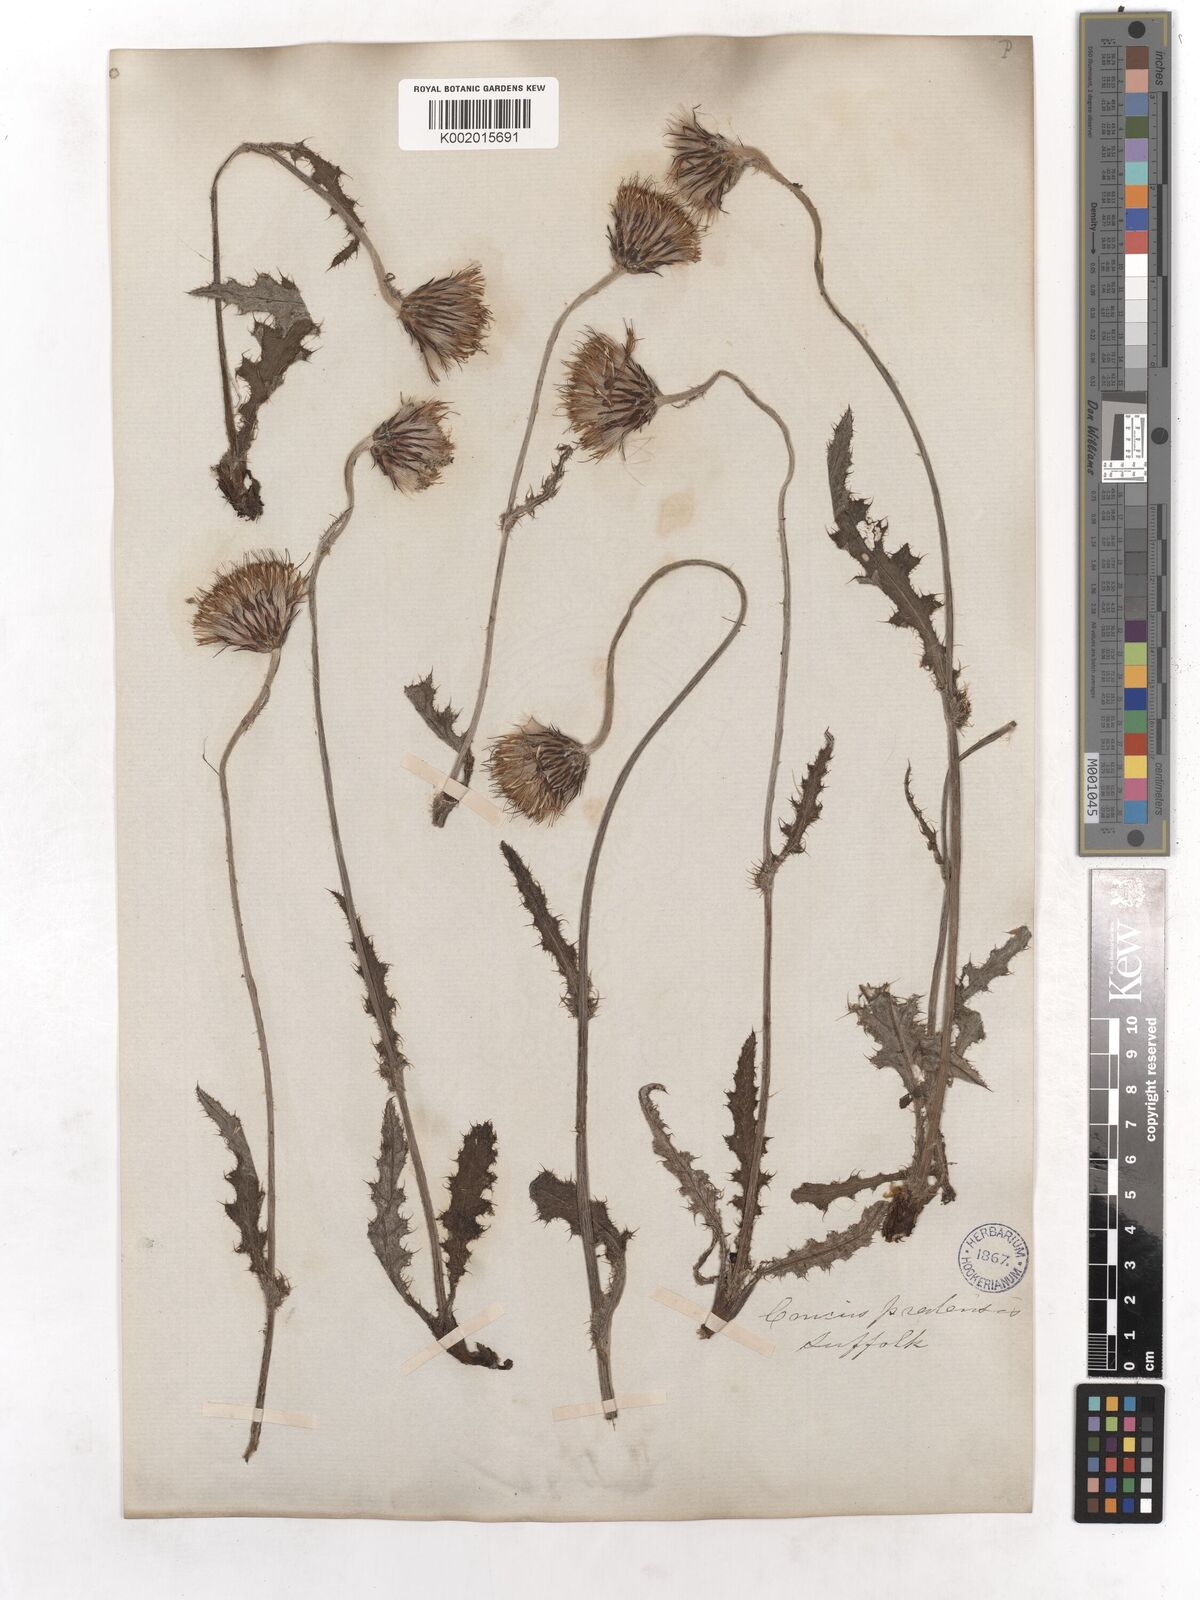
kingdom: Plantae
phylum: Tracheophyta
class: Magnoliopsida
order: Asterales
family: Asteraceae
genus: Cirsium
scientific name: Cirsium dissectum
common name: Meadow thistle
